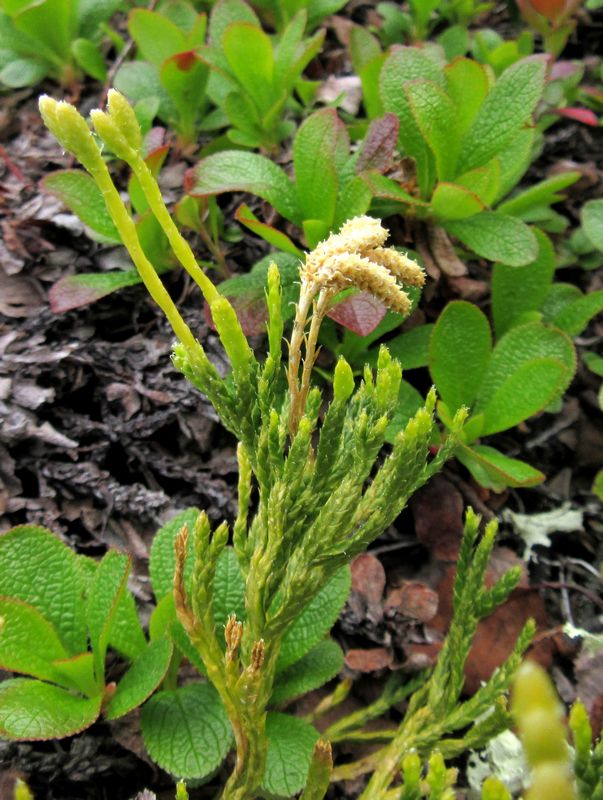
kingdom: Plantae
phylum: Tracheophyta
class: Lycopodiopsida
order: Lycopodiales
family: Lycopodiaceae
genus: Diphasiastrum
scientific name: Diphasiastrum alpinum
